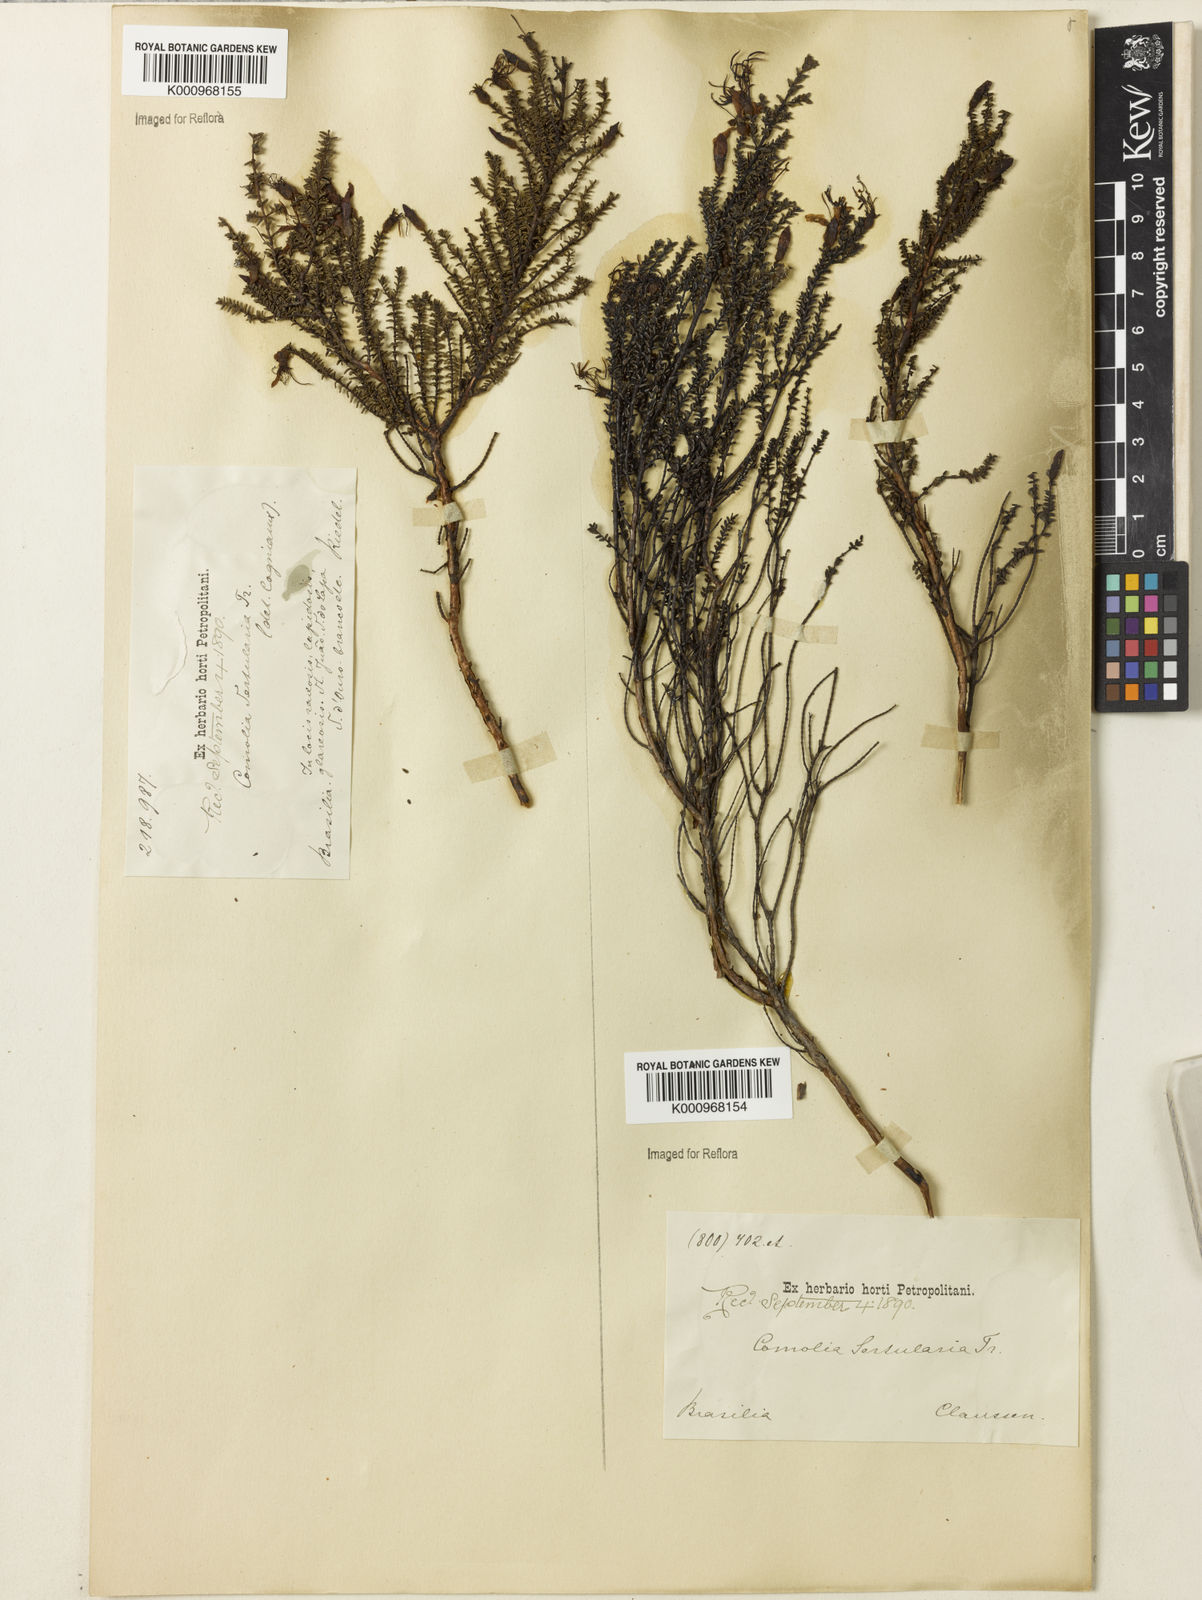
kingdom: Plantae
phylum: Tracheophyta
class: Magnoliopsida
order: Myrtales
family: Melastomataceae
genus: Fritzschia
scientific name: Fritzschia sertularia
